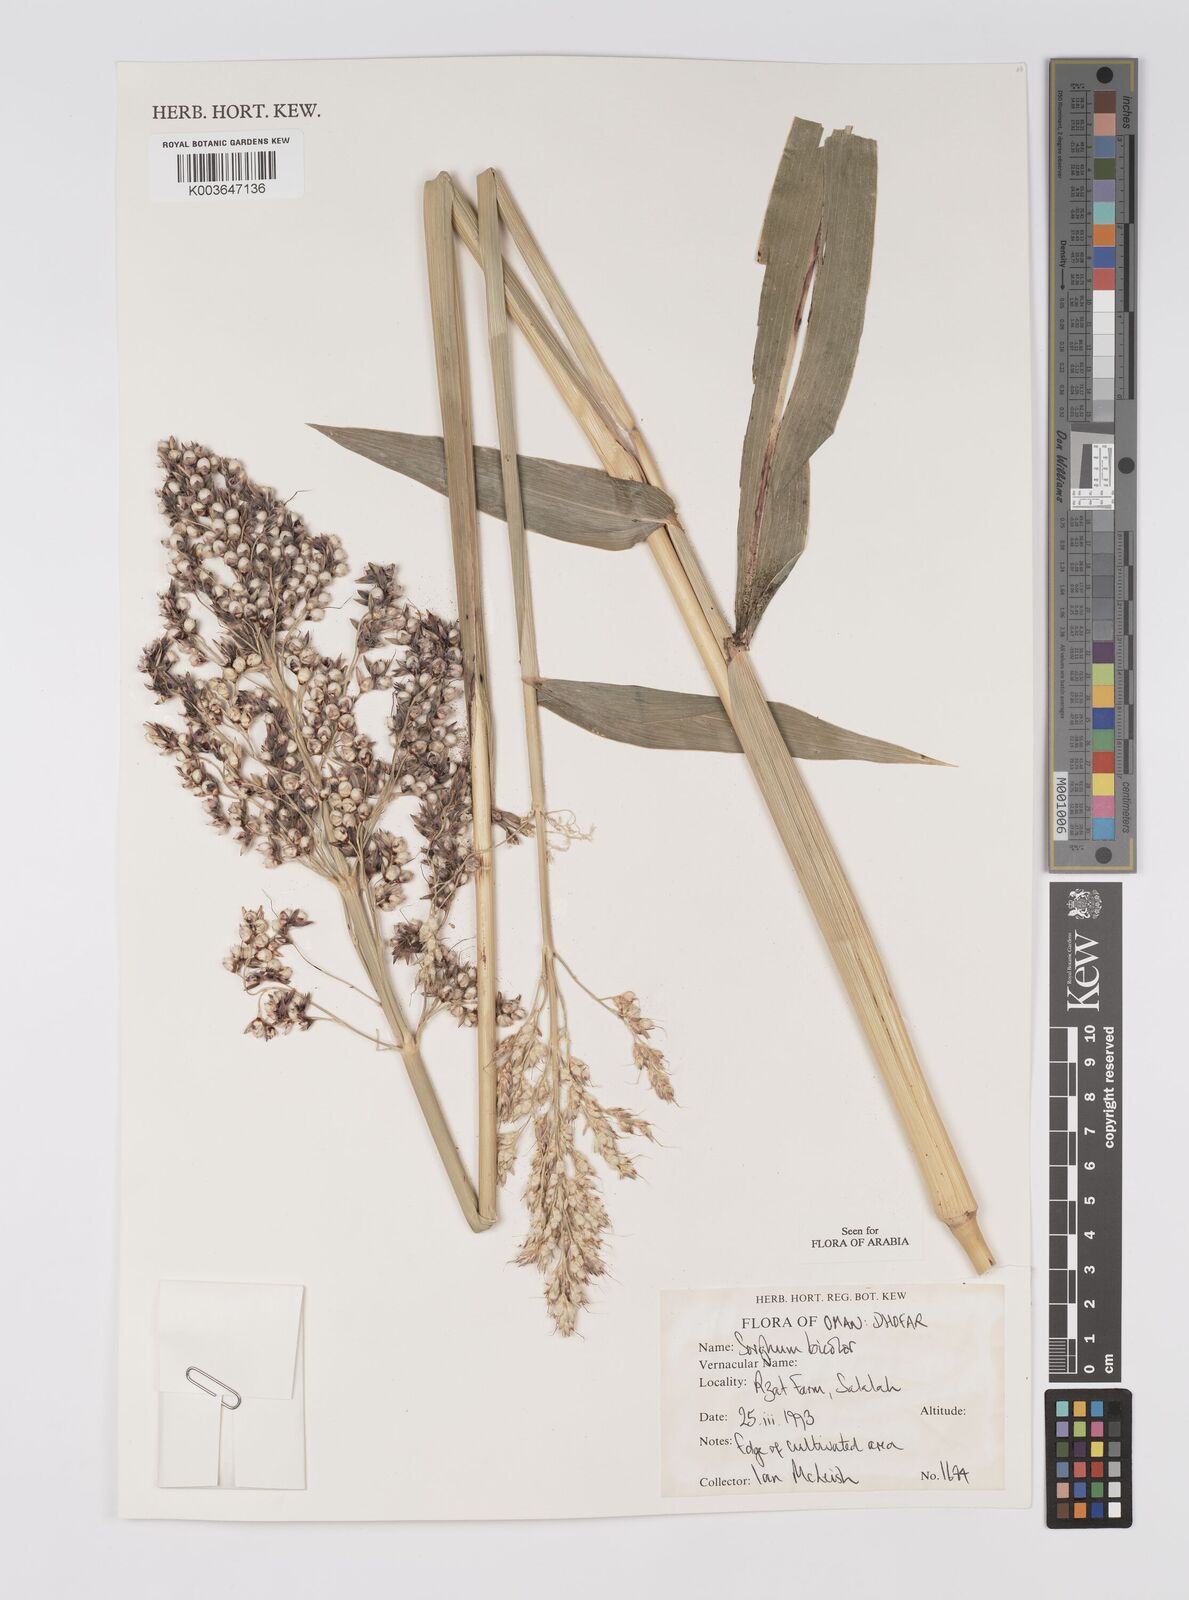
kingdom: Plantae
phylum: Tracheophyta
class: Liliopsida
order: Poales
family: Poaceae
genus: Sorghum
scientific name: Sorghum bicolor
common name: Sorghum
